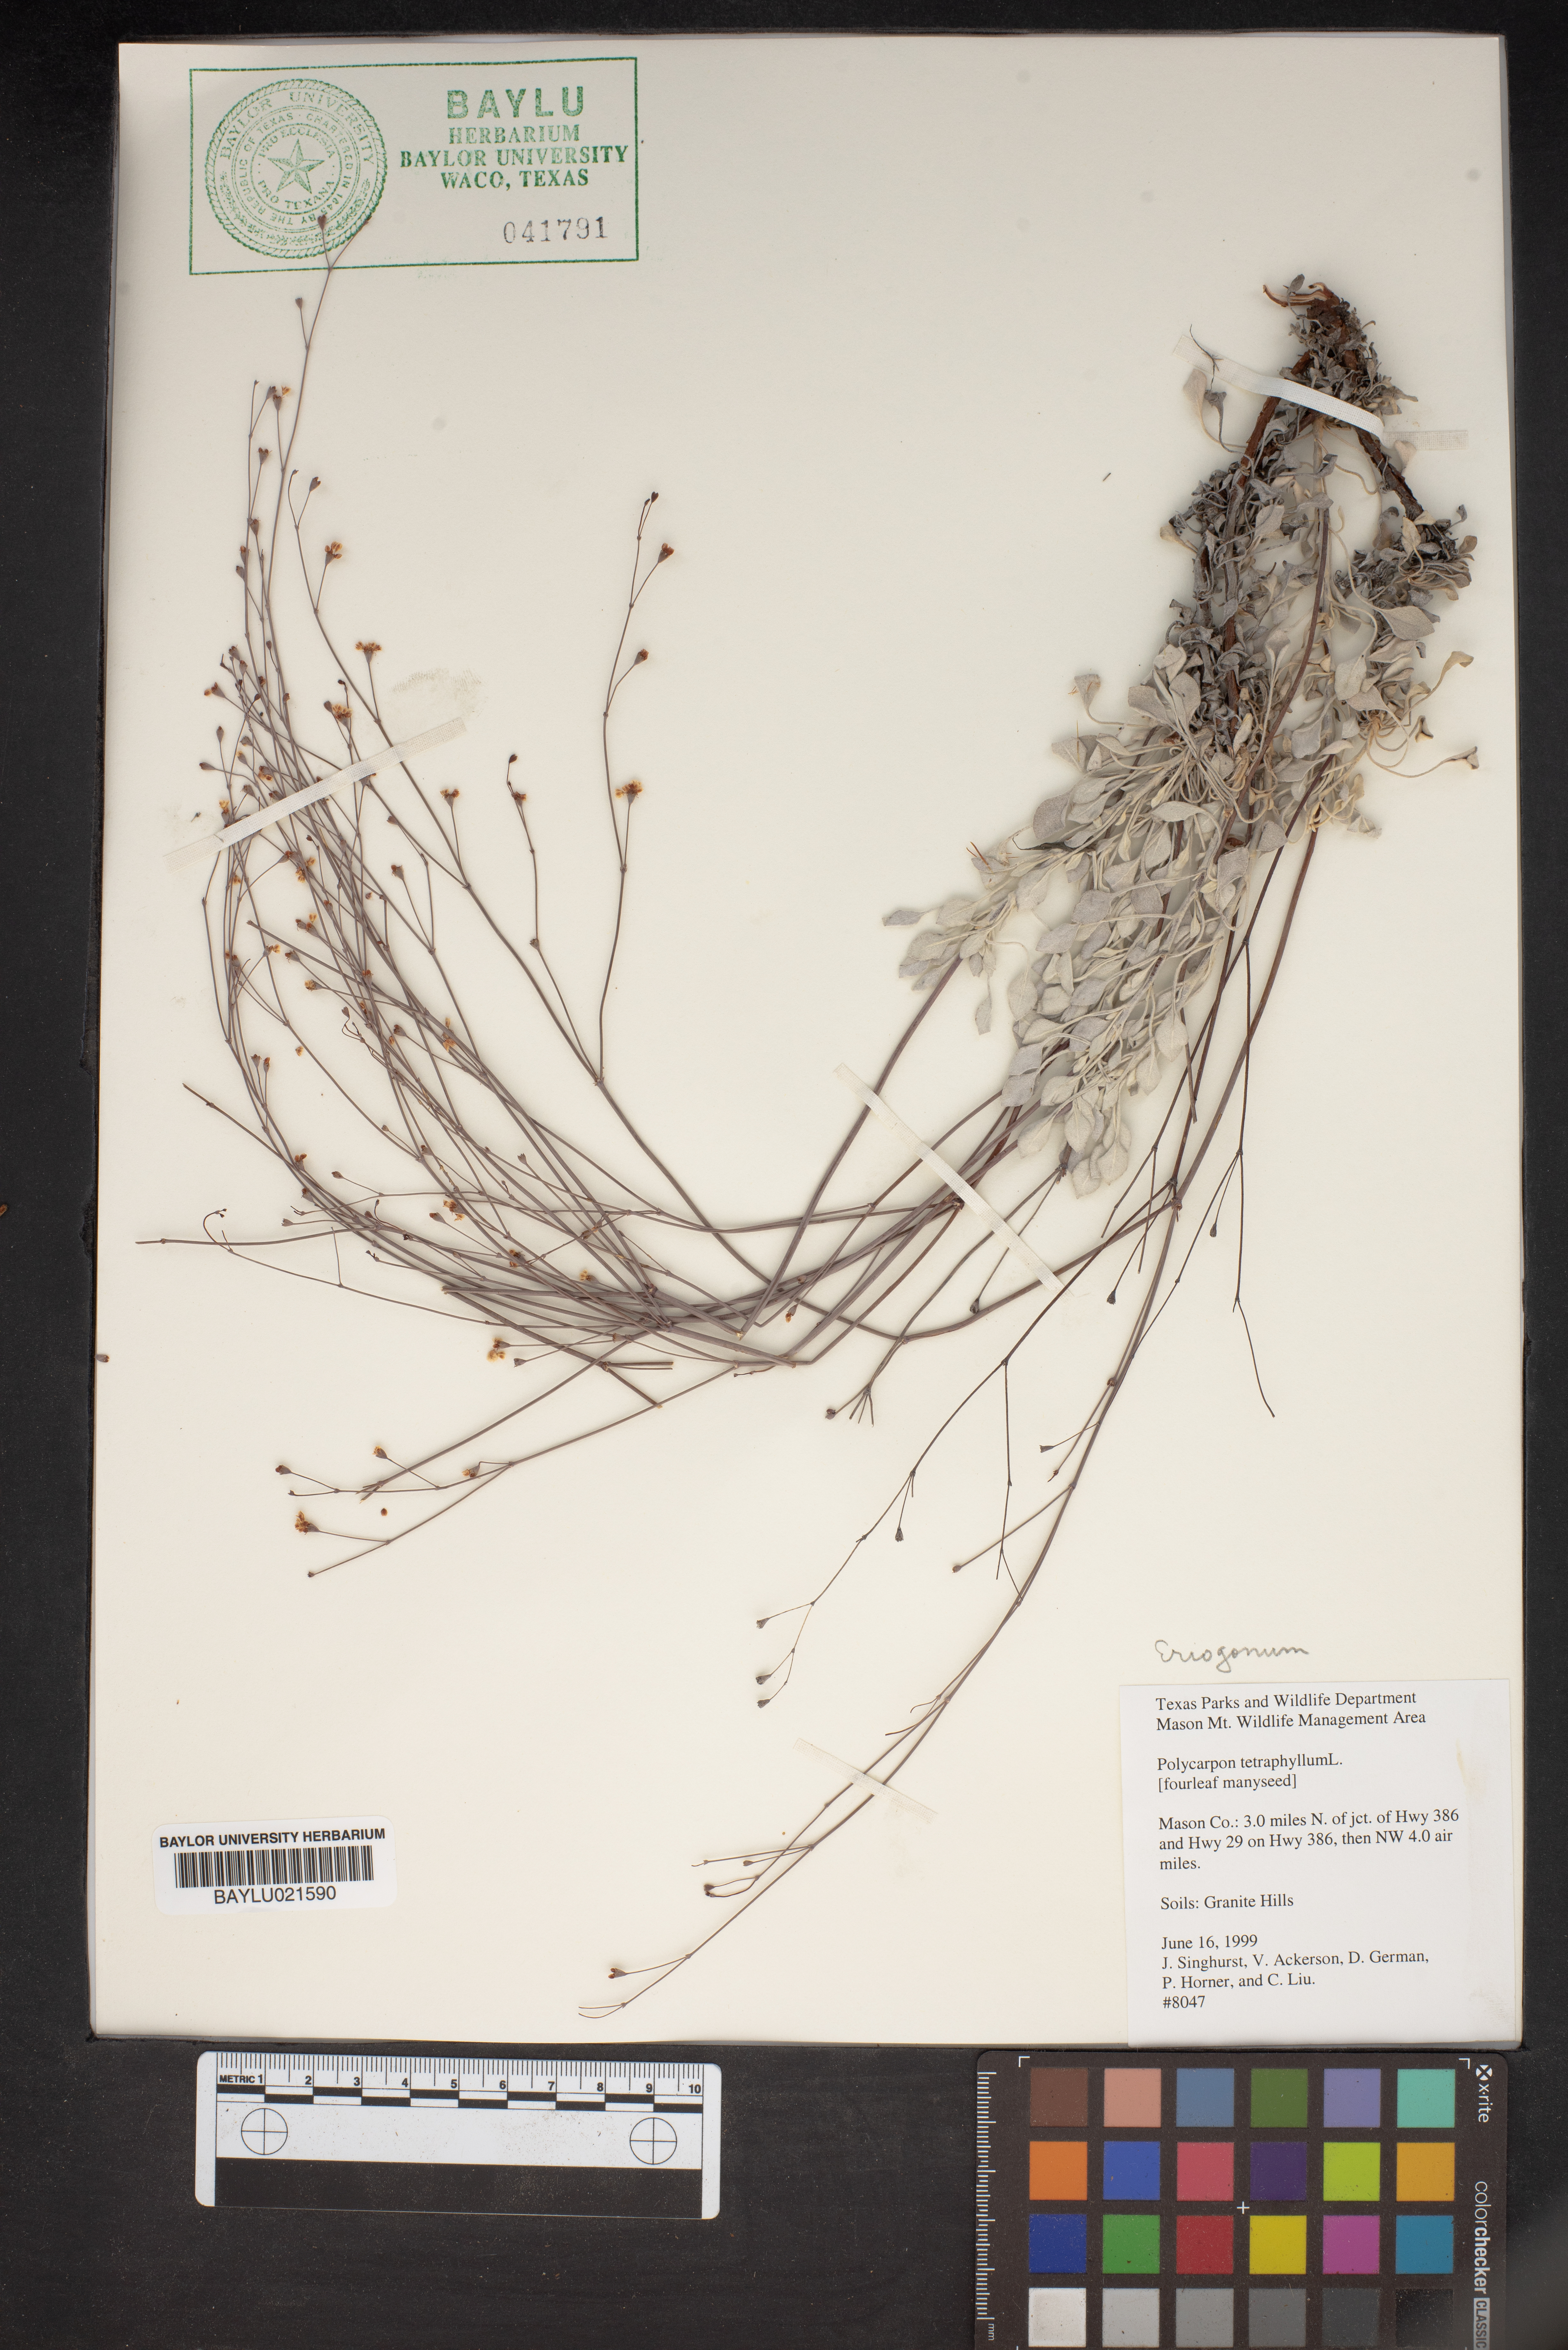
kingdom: Plantae
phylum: Tracheophyta
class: Magnoliopsida
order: Caryophyllales
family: Caryophyllaceae
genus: Polycarpon
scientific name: Polycarpon tetraphyllum
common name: Four-leaved all-seed
